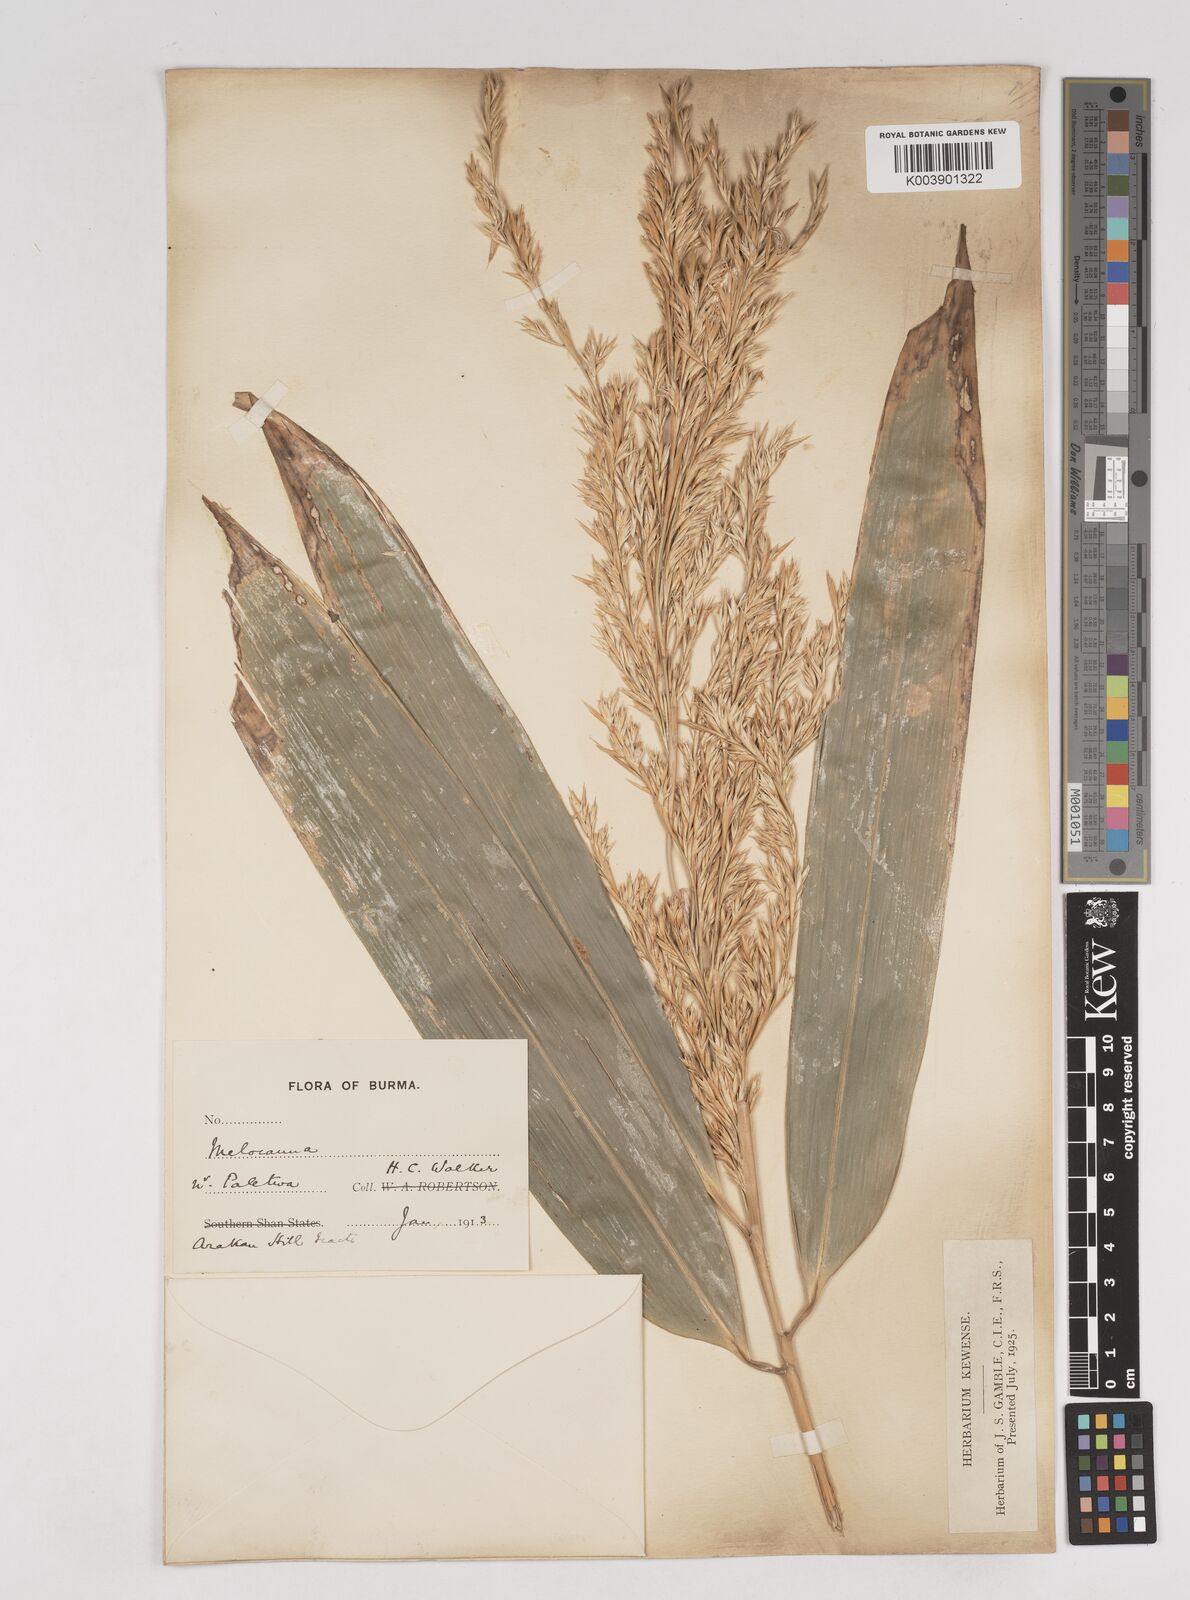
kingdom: Plantae
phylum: Tracheophyta
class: Liliopsida
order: Poales
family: Poaceae
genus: Melocanna
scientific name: Melocanna
